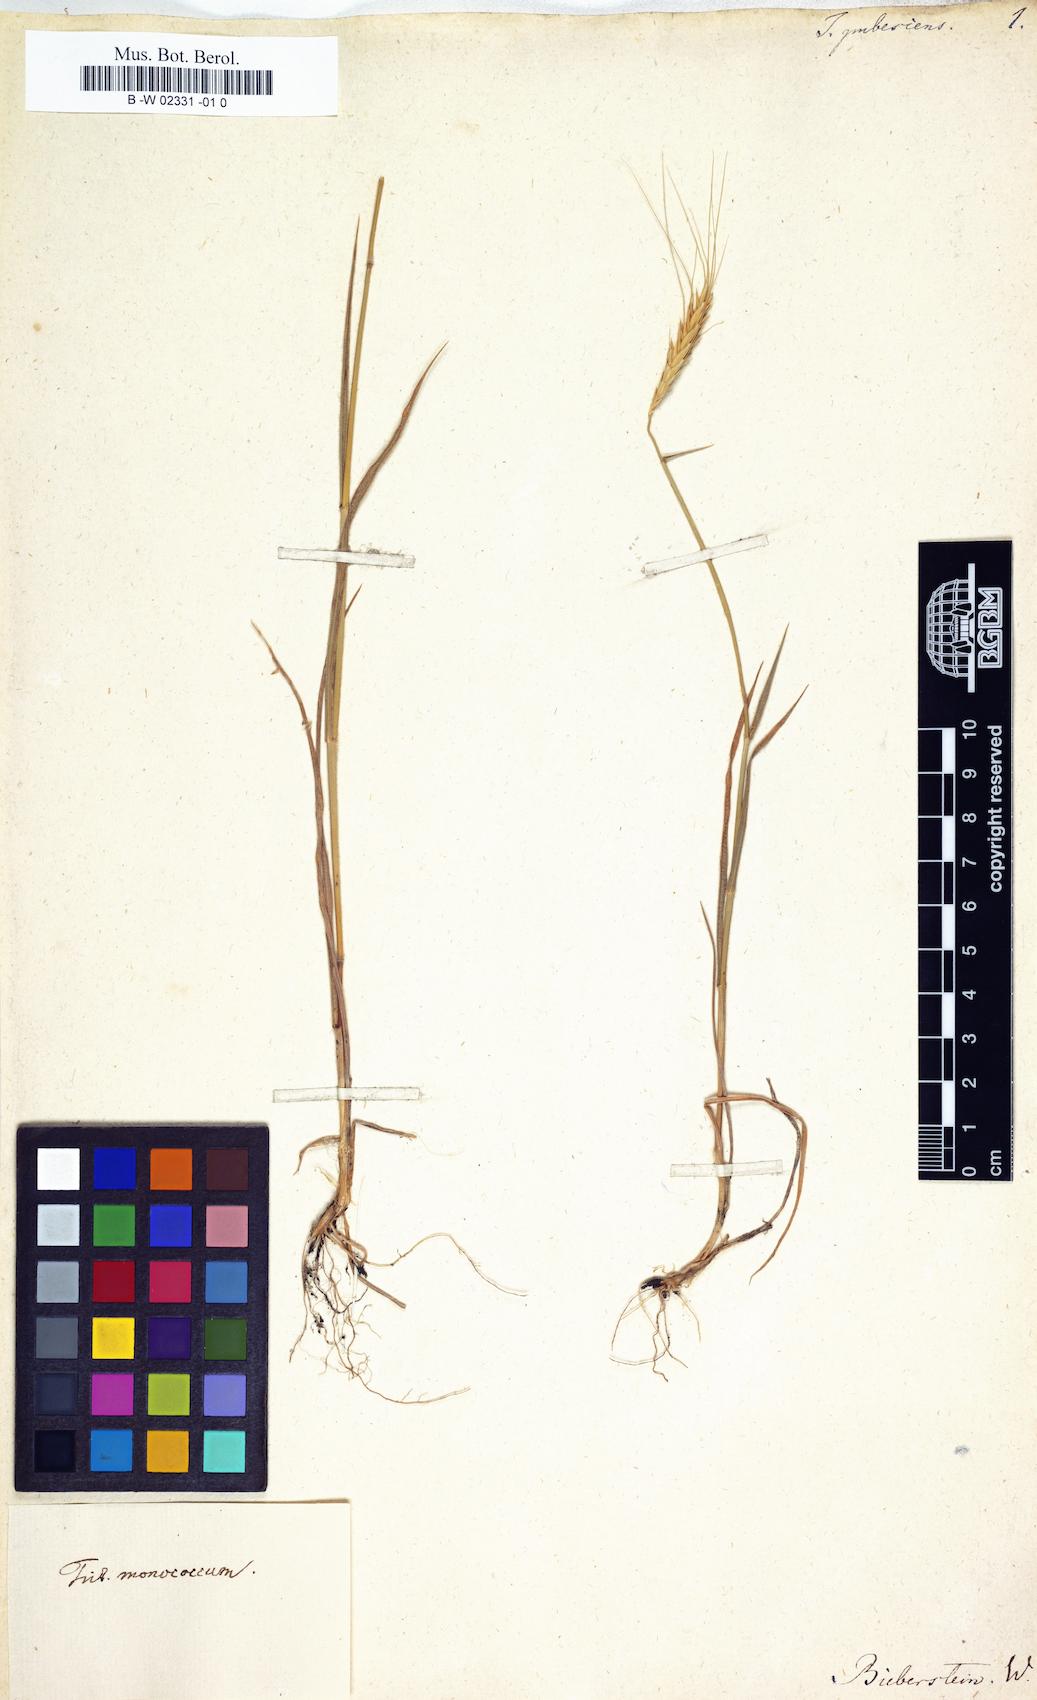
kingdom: Plantae
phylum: Tracheophyta
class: Liliopsida
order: Poales
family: Poaceae
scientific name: Poaceae
